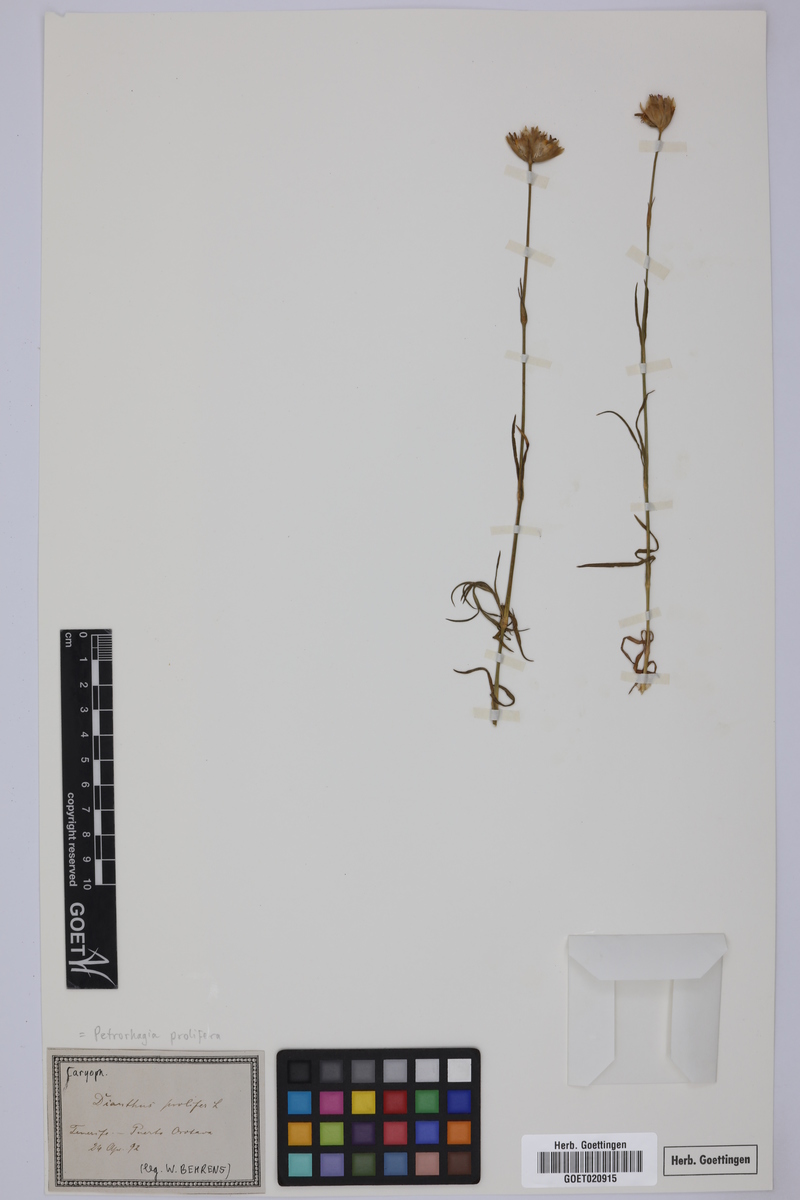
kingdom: Plantae
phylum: Tracheophyta
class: Magnoliopsida
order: Caryophyllales
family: Caryophyllaceae
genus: Petrorhagia
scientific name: Petrorhagia prolifera
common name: Proliferous pink
